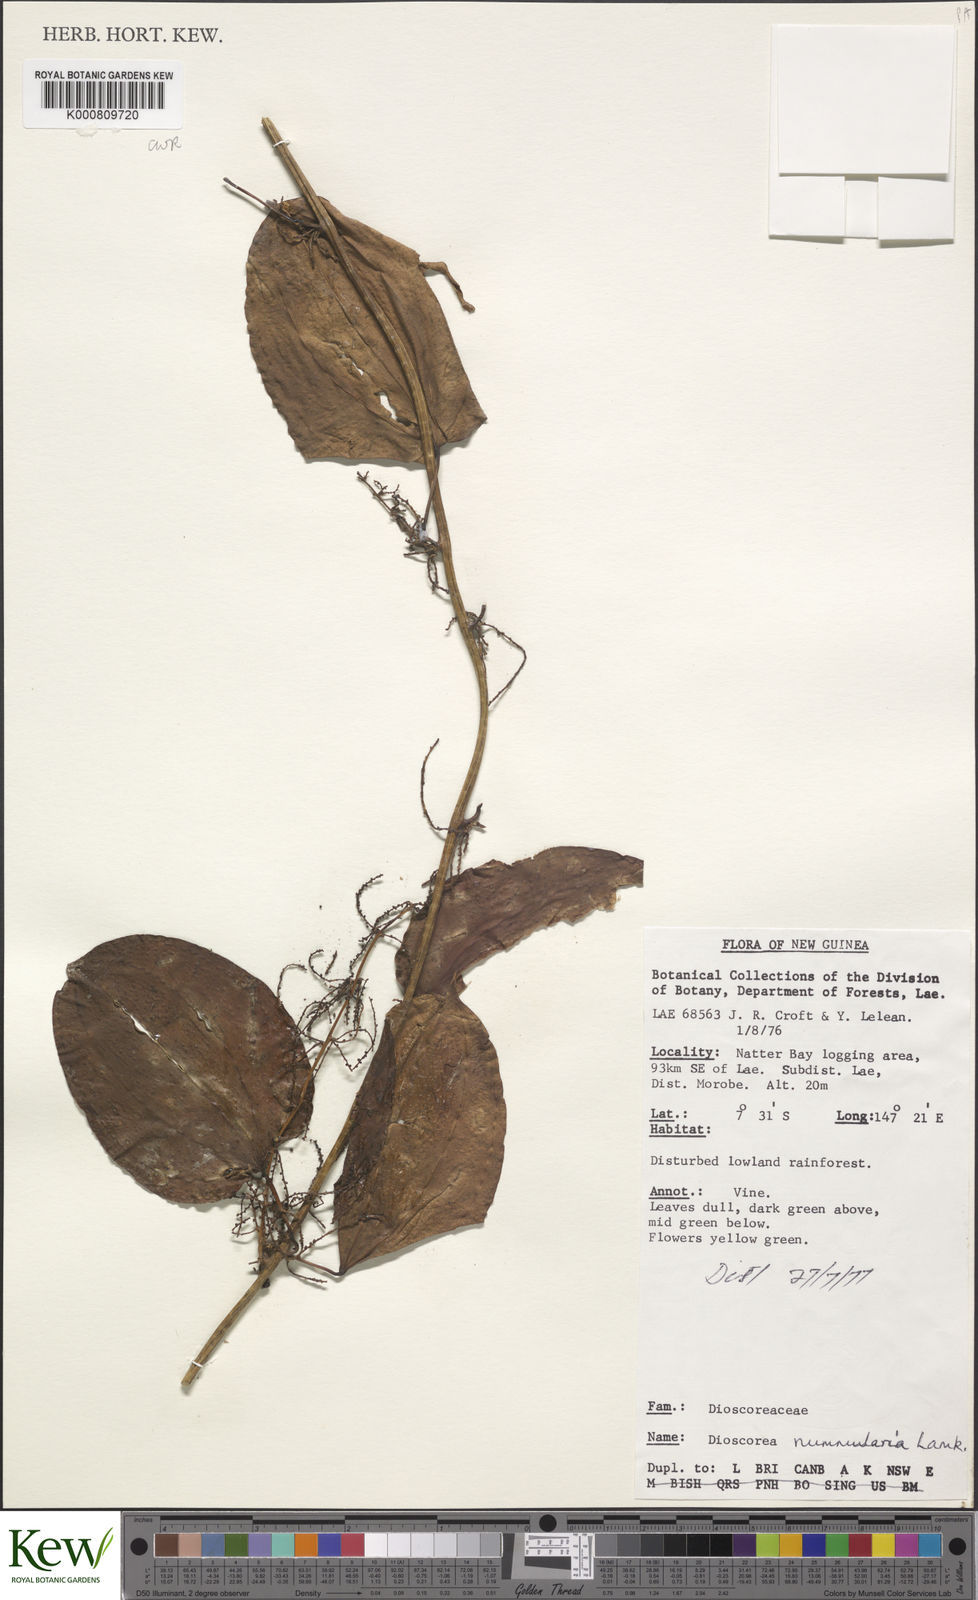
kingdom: Plantae
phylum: Tracheophyta
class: Liliopsida
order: Dioscoreales
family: Dioscoreaceae
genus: Dioscorea
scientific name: Dioscorea nummularia
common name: Pacific yam
